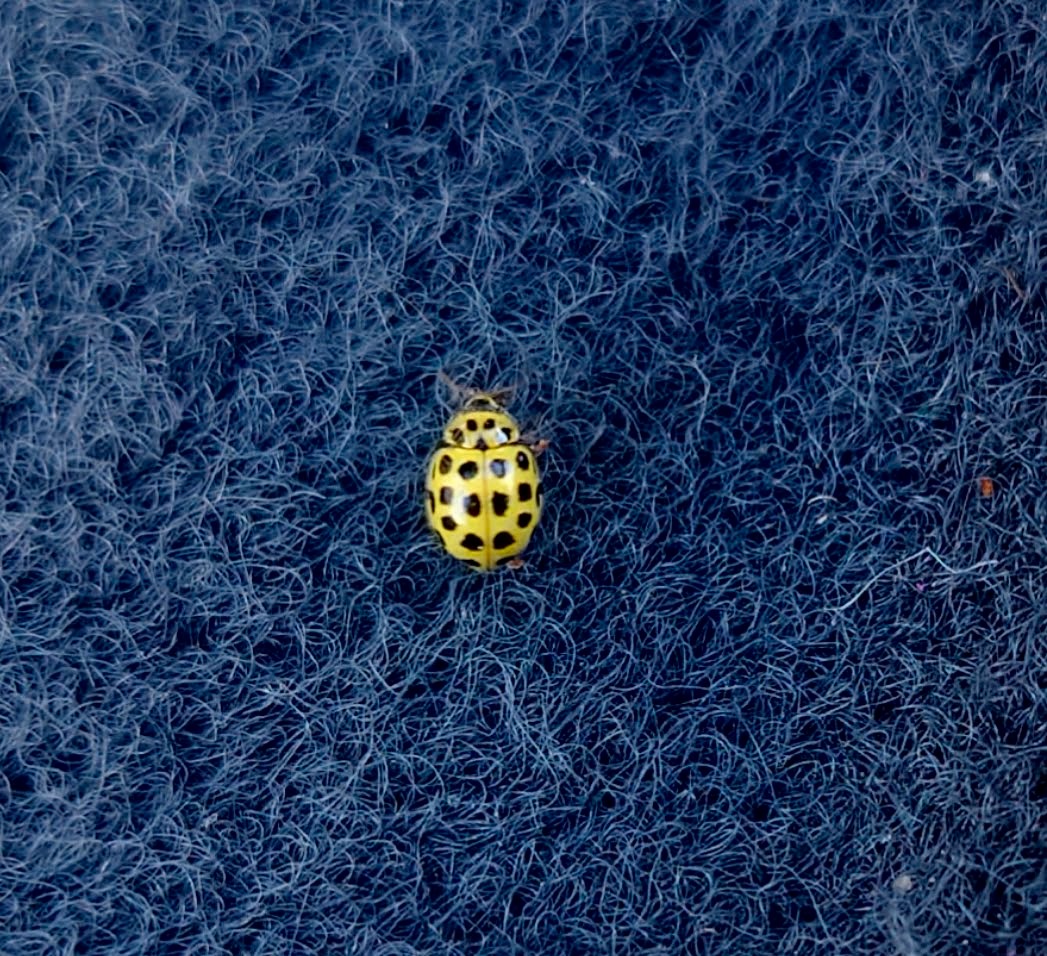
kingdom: Animalia
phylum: Arthropoda
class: Insecta
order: Coleoptera
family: Coccinellidae
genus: Psyllobora
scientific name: Psyllobora vigintiduopunctata
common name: Toogtyveplettet mariehøne
